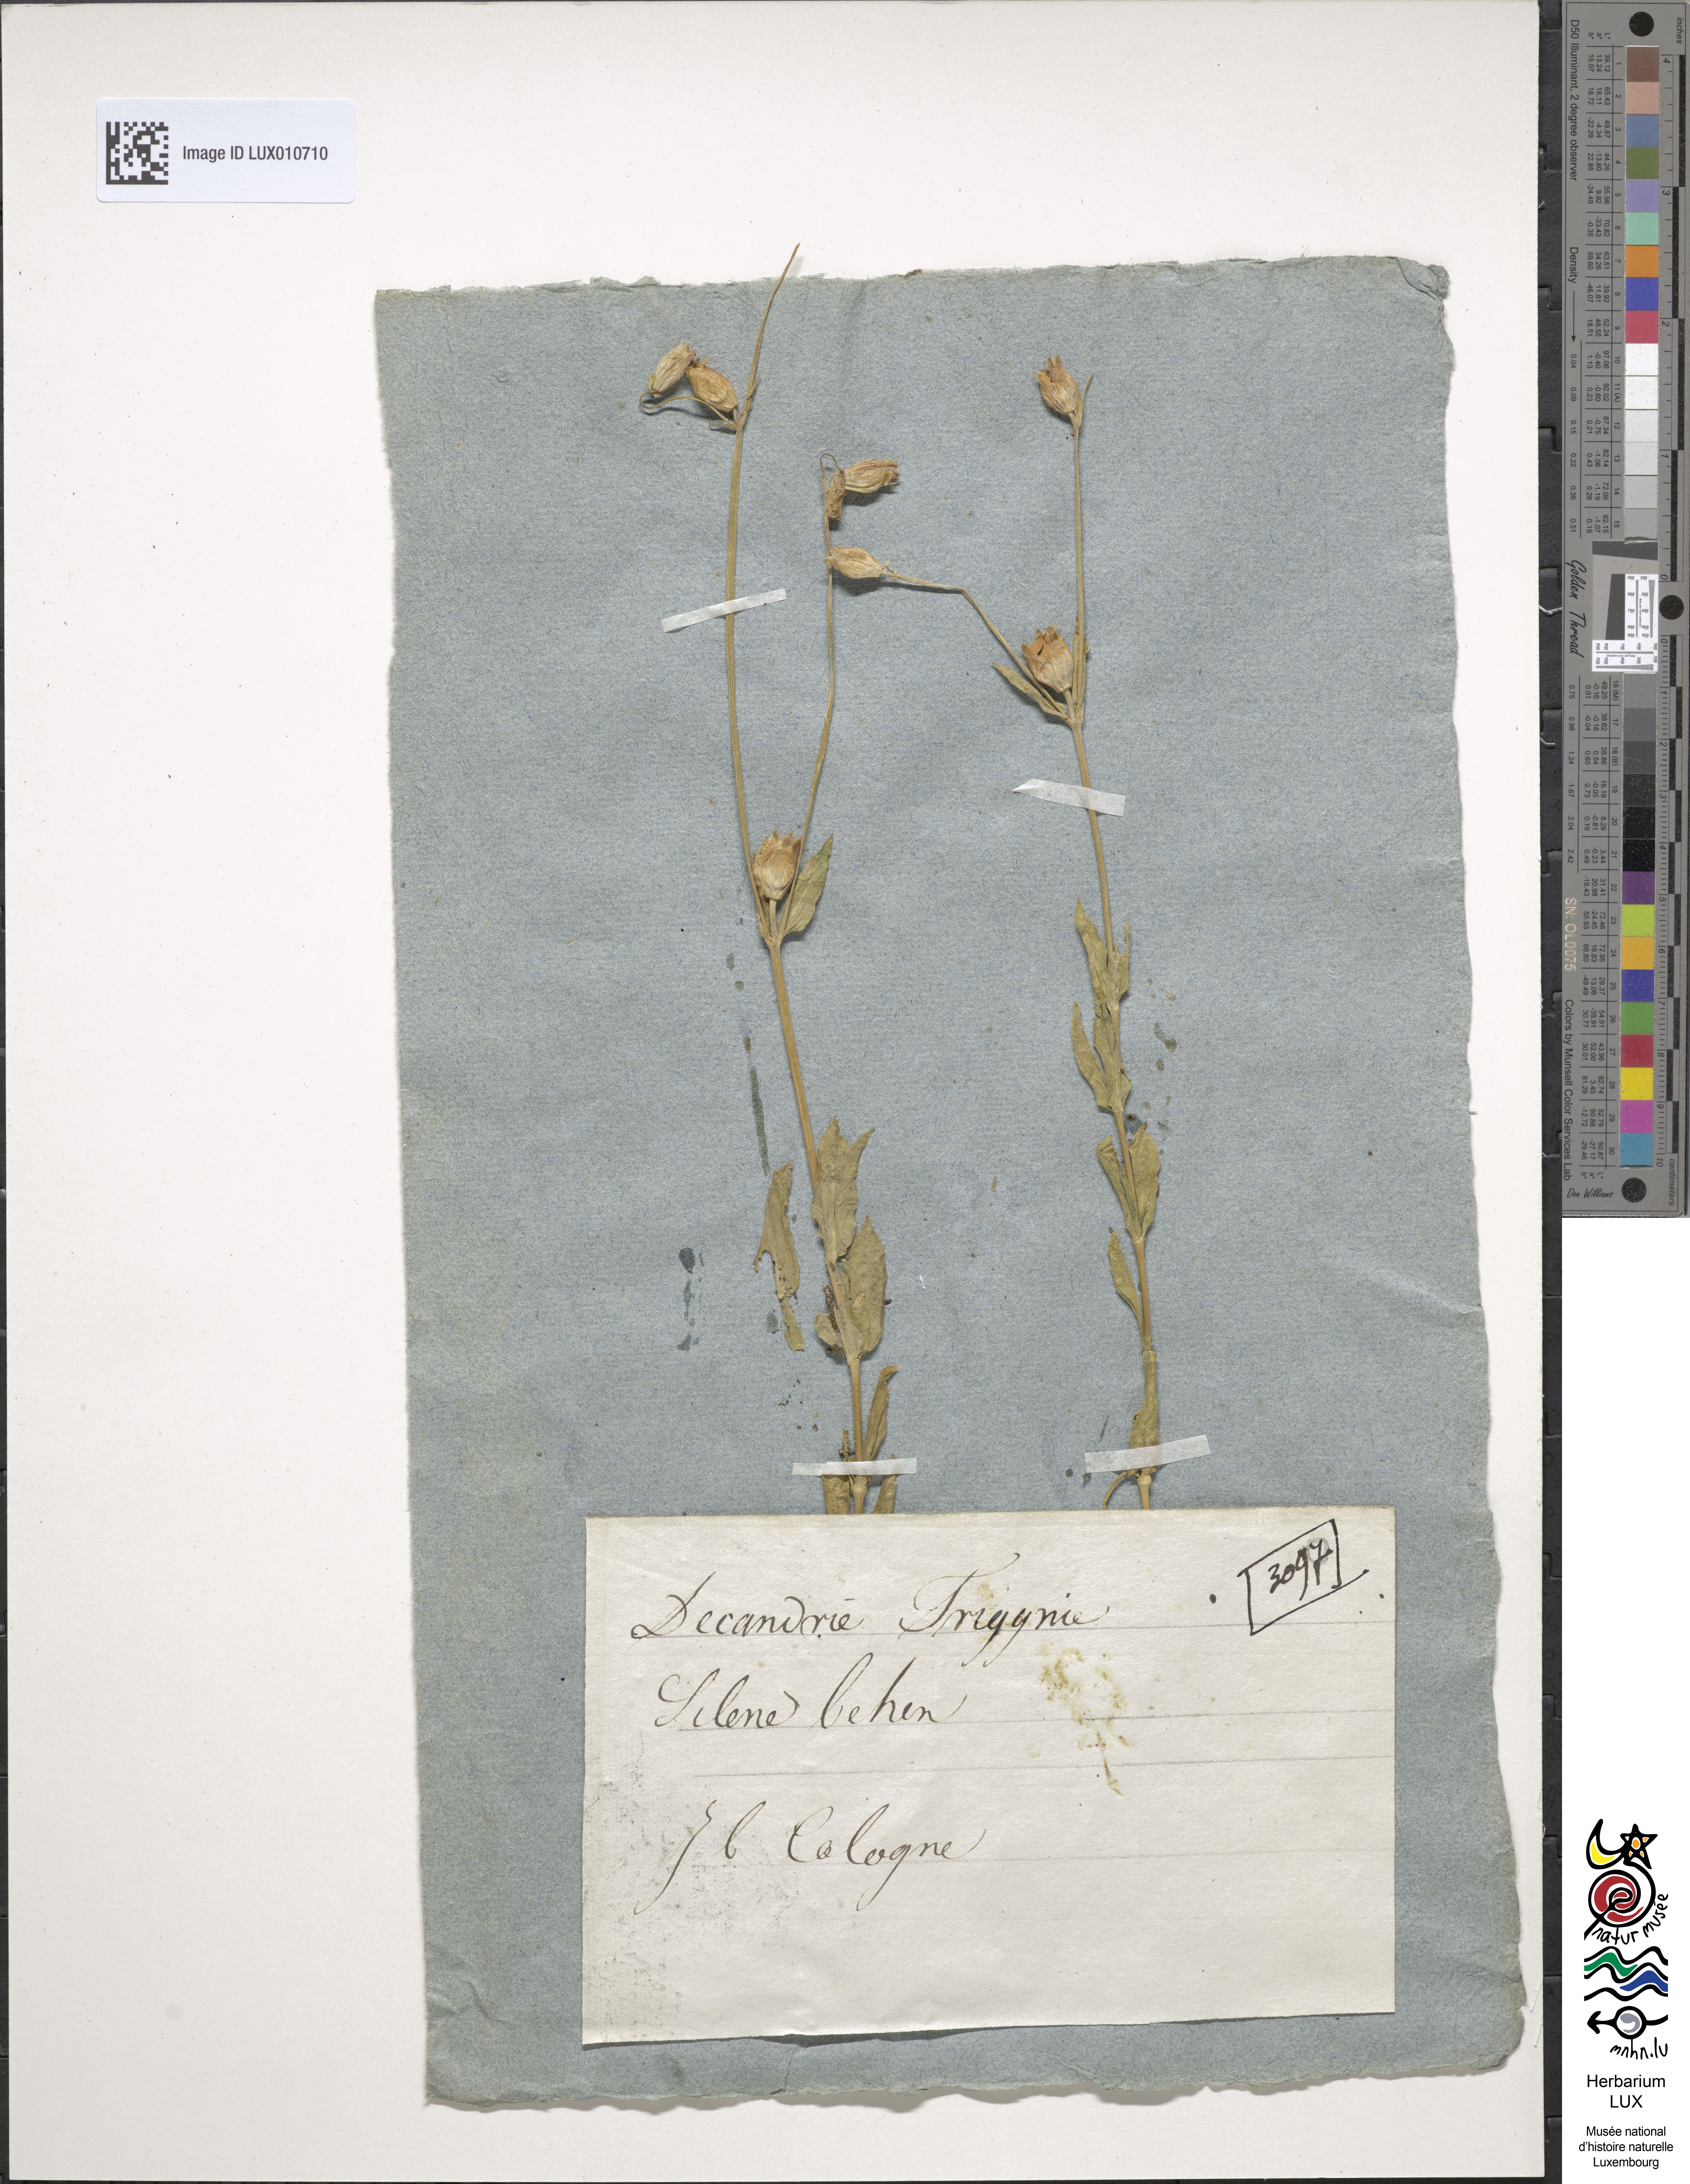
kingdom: Plantae
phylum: Tracheophyta
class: Magnoliopsida
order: Caryophyllales
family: Caryophyllaceae
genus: Silene
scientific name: Silene vulgaris
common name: Bladder campion
